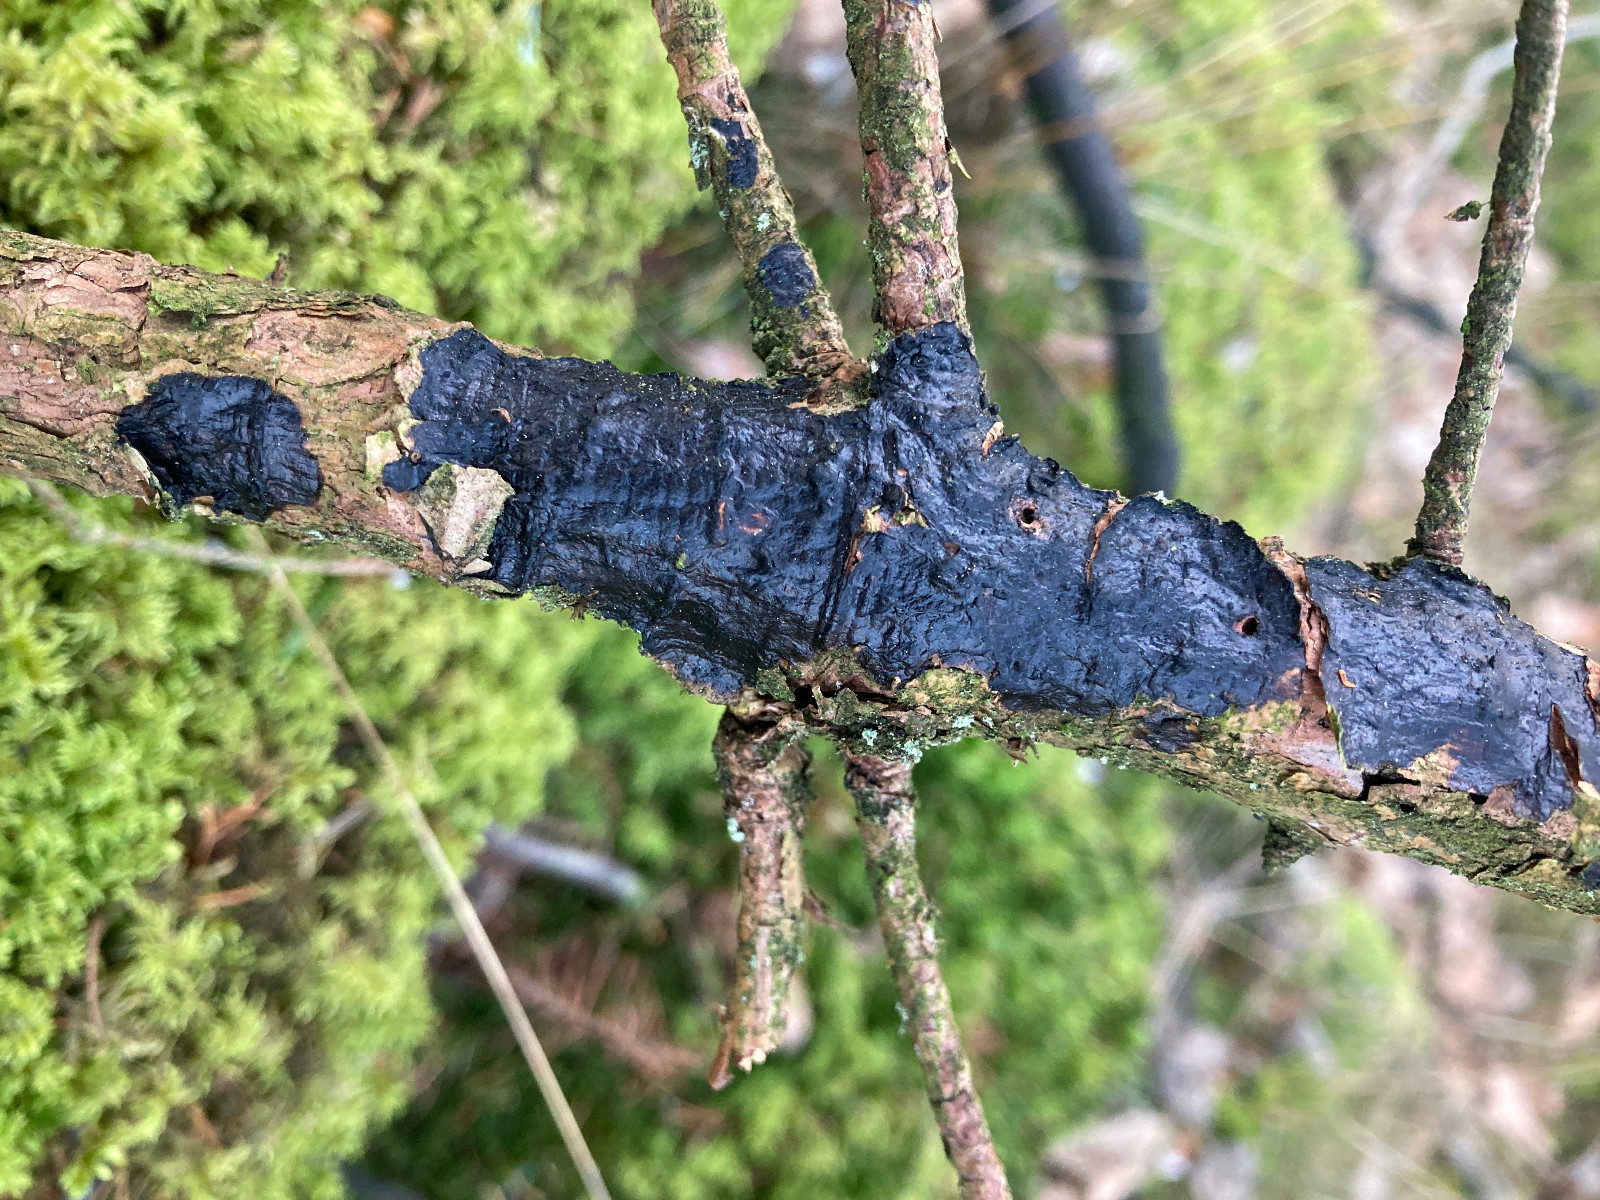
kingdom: Fungi
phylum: Basidiomycota
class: Agaricomycetes
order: Auriculariales
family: Auriculariaceae
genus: Exidia
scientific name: Exidia pithya
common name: gran-bævretop
